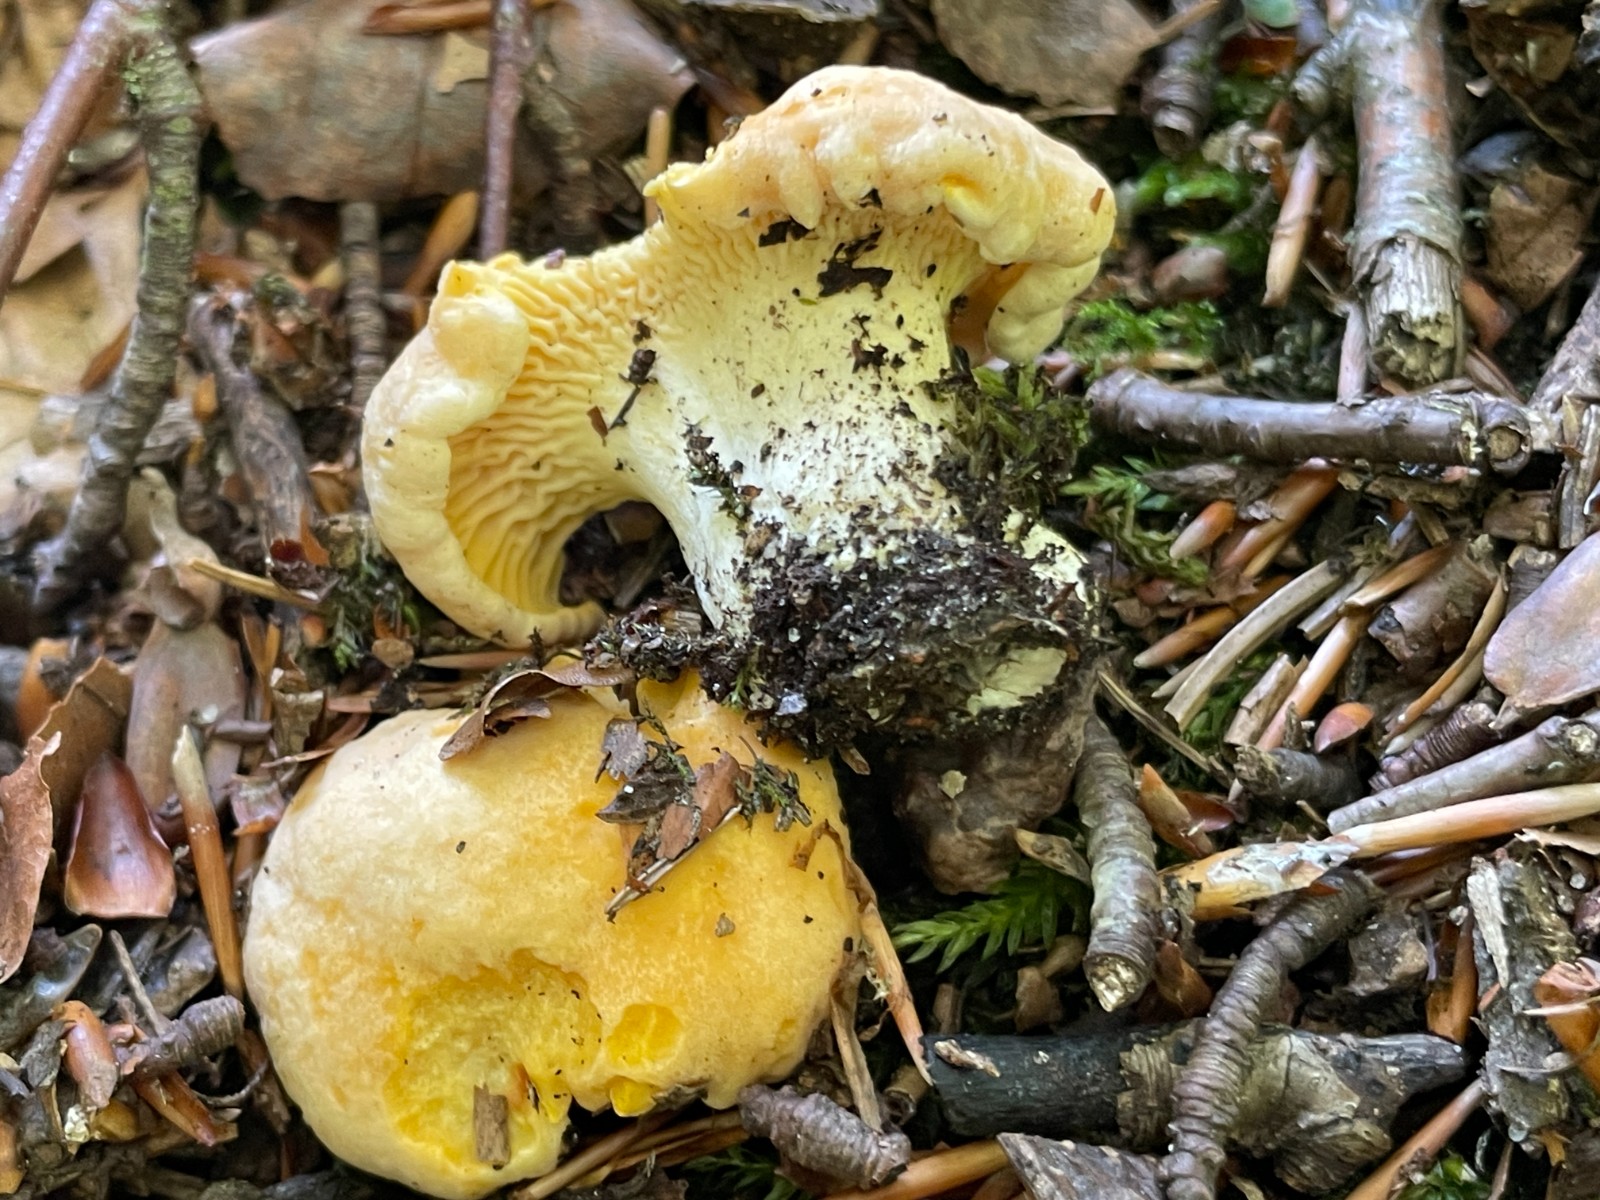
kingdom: Fungi
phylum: Basidiomycota
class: Agaricomycetes
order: Cantharellales
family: Hydnaceae
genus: Cantharellus
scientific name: Cantharellus pallens
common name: bleg kantarel
